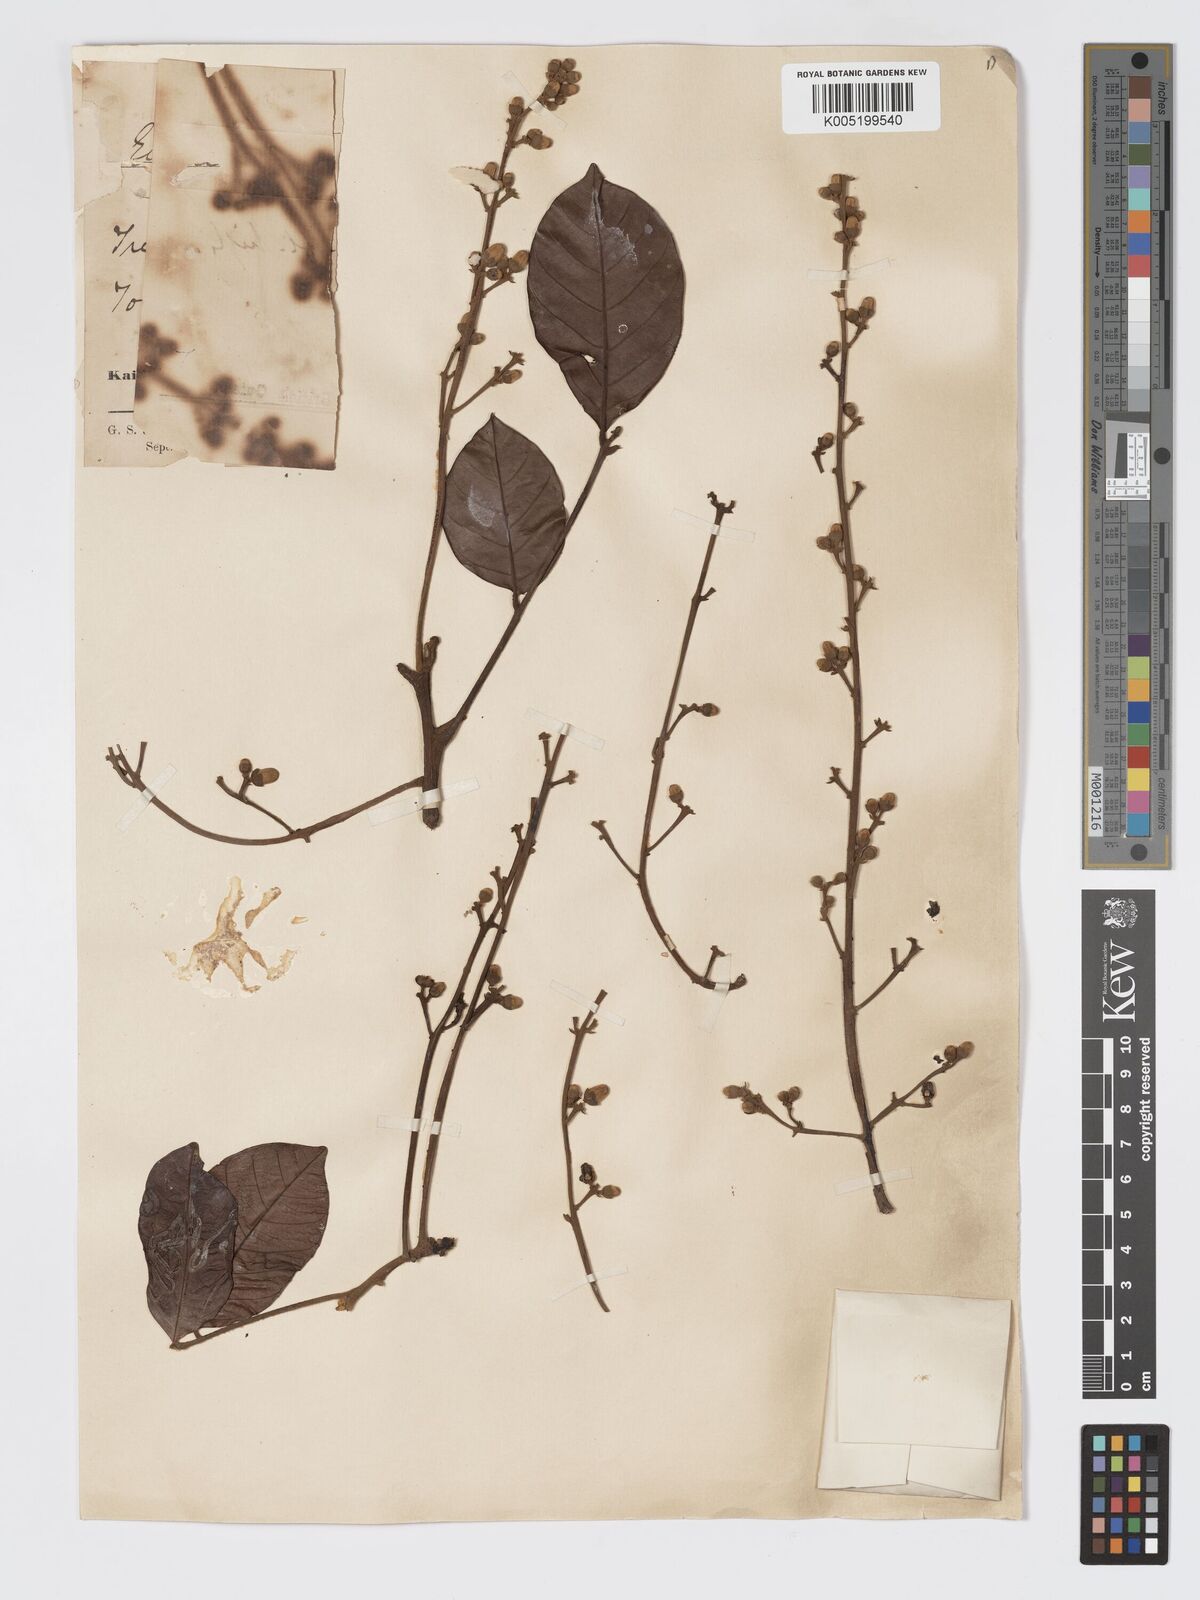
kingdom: Plantae
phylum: Tracheophyta
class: Magnoliopsida
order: Sapindales
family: Meliaceae
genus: Guarea
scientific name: Guarea
